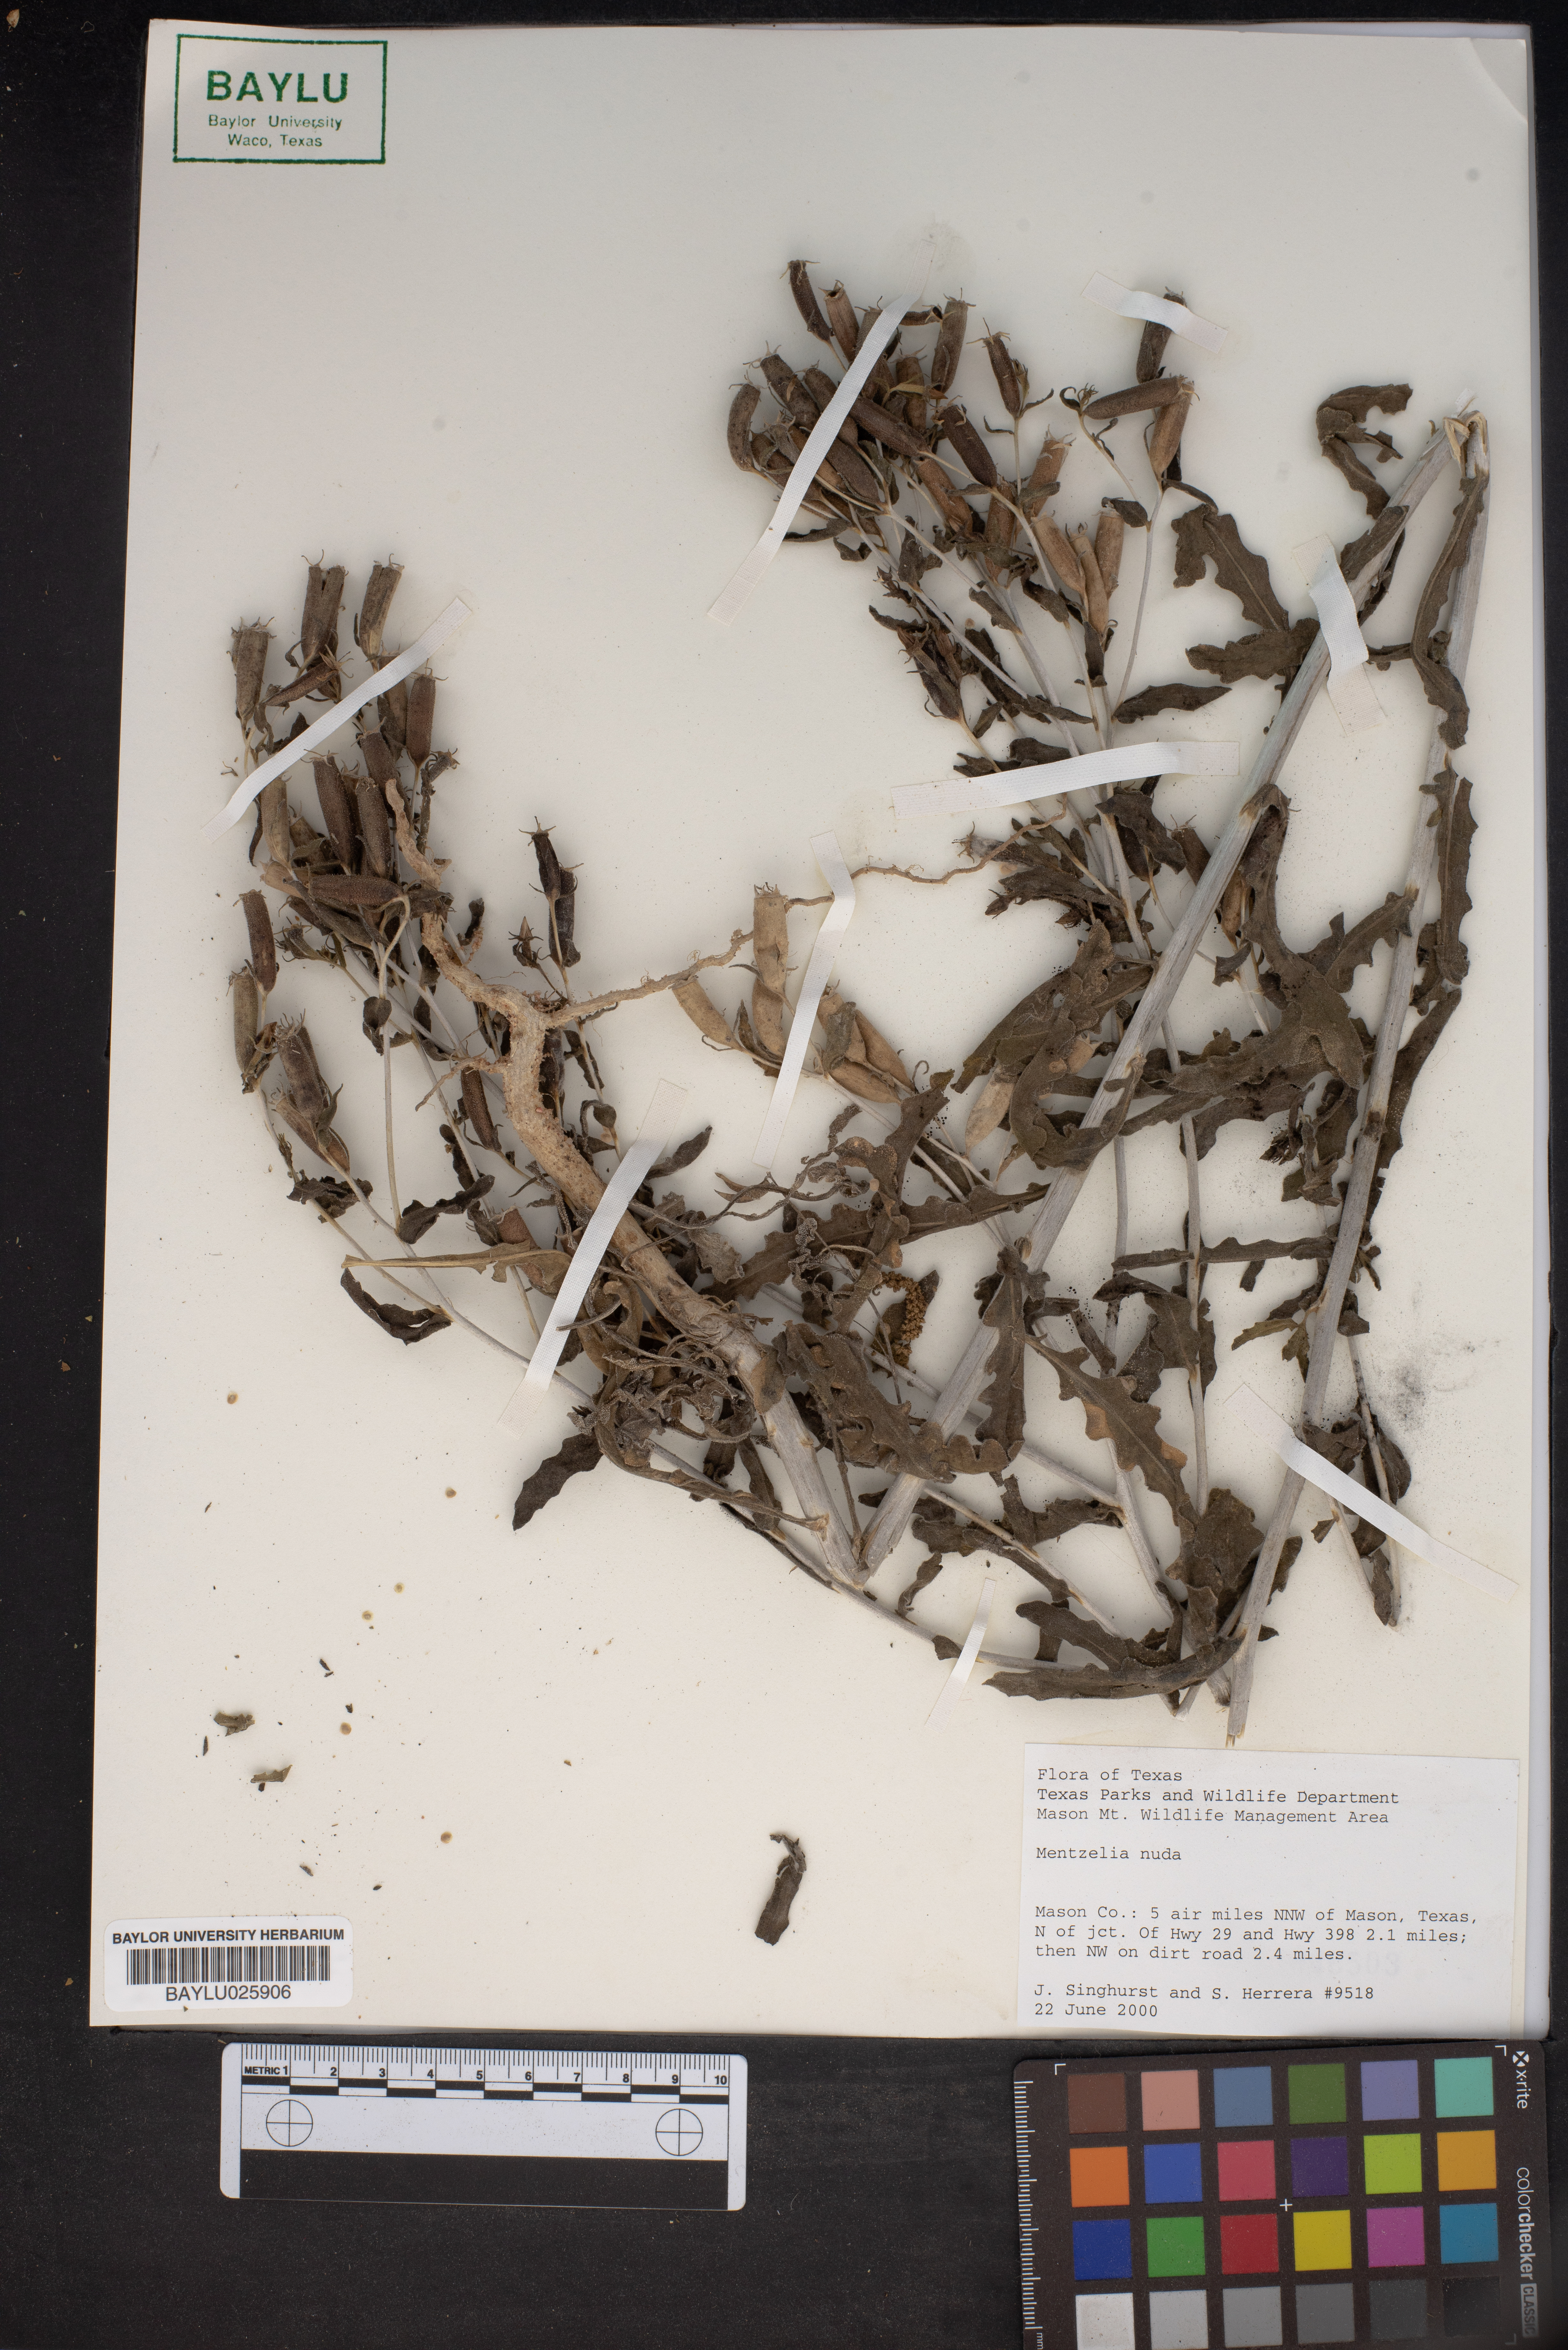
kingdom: Plantae
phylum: Tracheophyta
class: Magnoliopsida
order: Cornales
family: Loasaceae
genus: Mentzelia
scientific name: Mentzelia nuda
